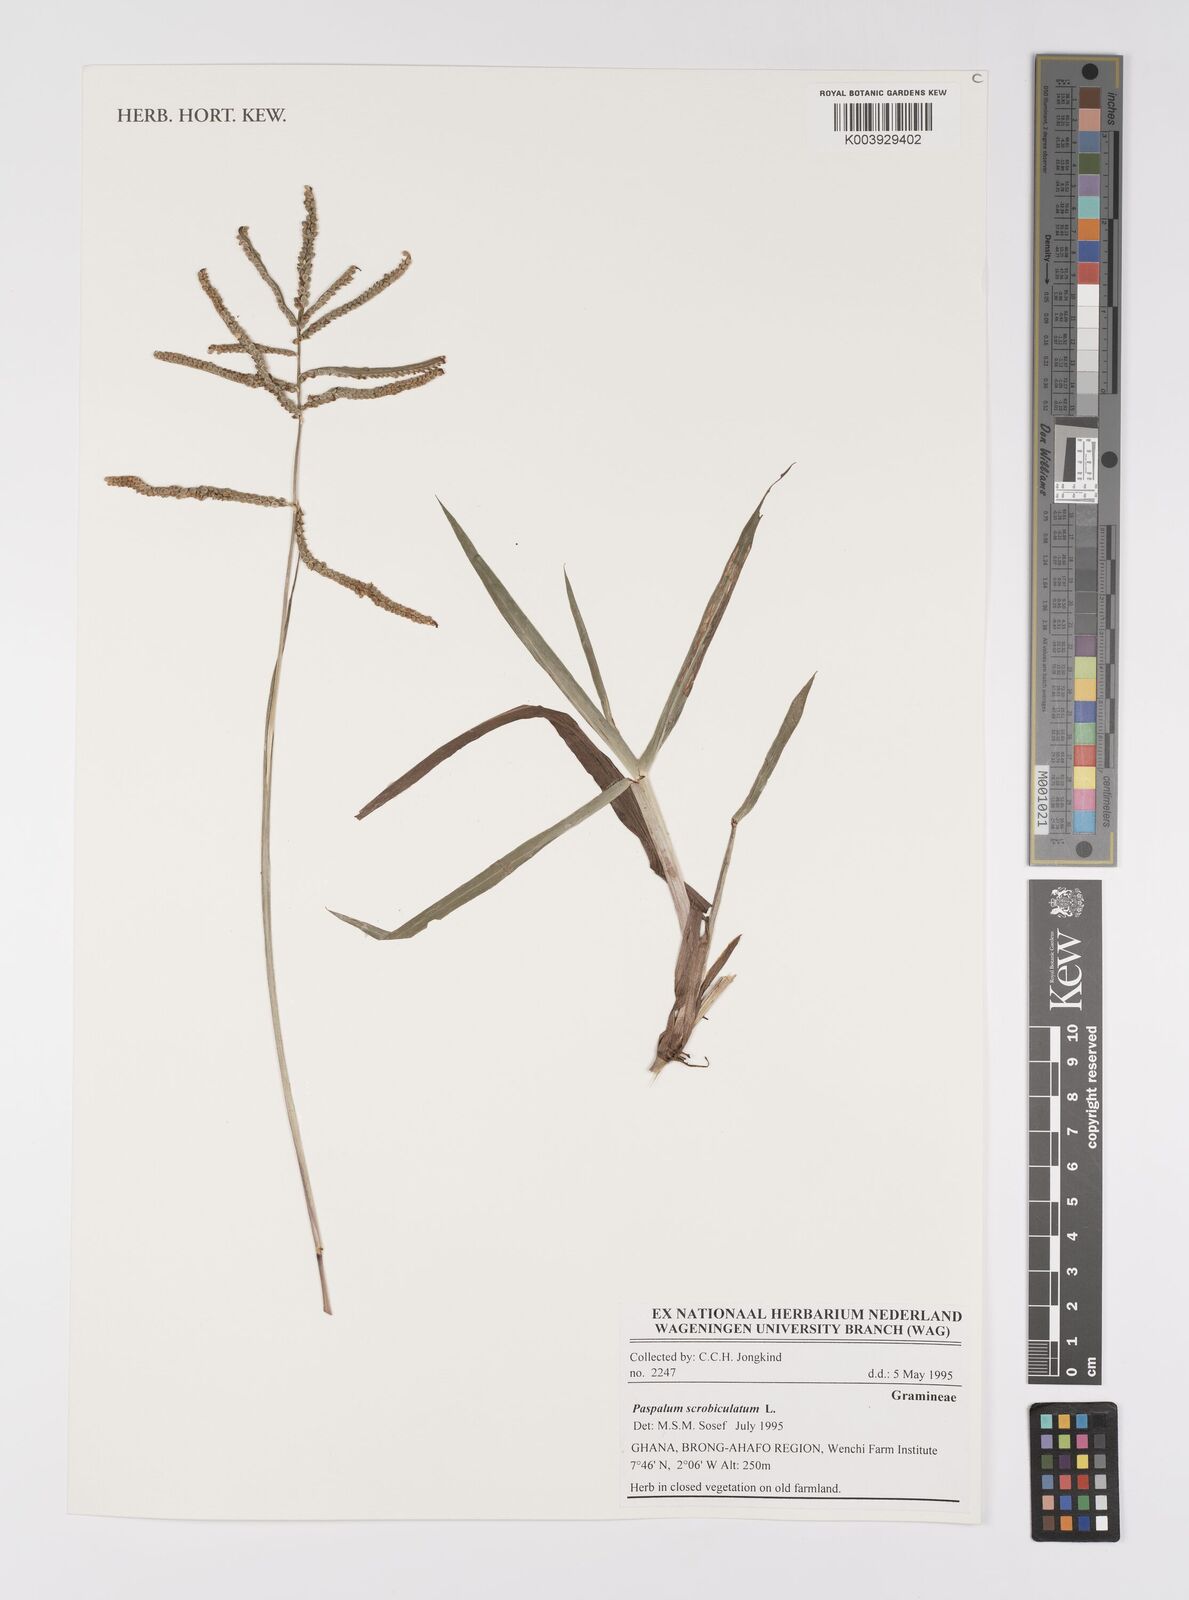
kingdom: Plantae
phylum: Tracheophyta
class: Liliopsida
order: Poales
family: Poaceae
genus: Paspalum
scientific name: Paspalum scrobiculatum
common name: Kodo millet
